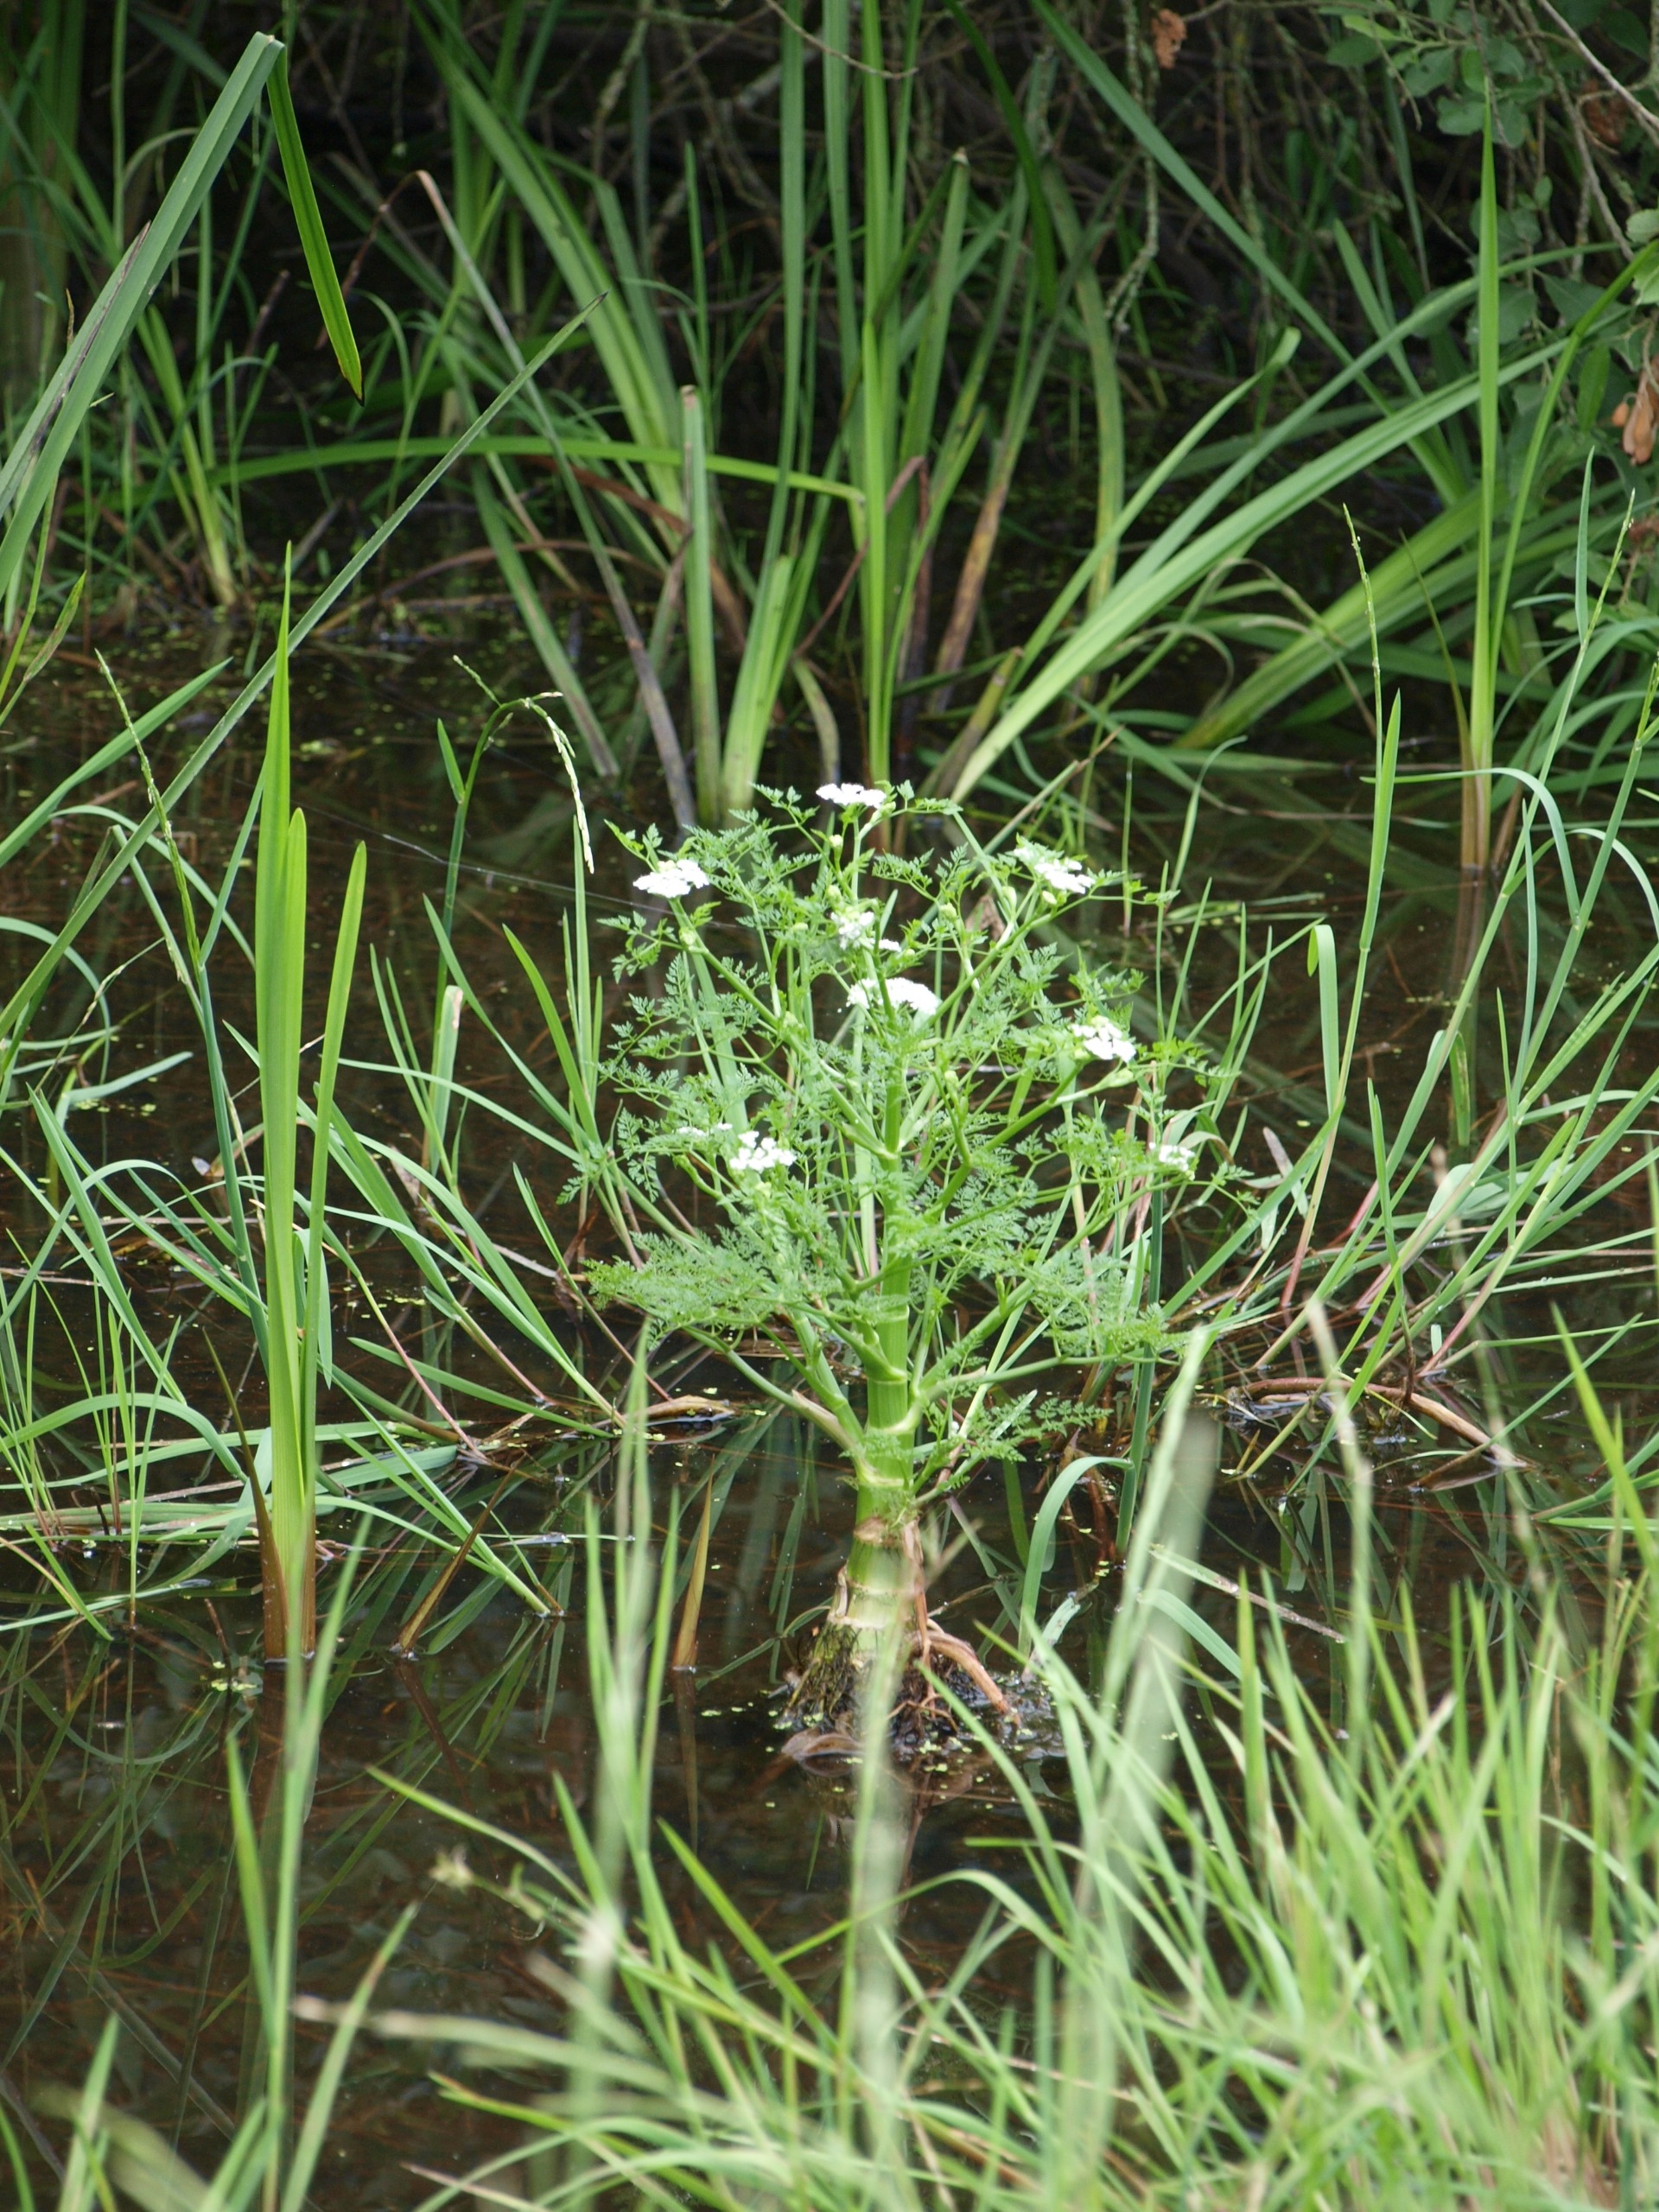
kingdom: Plantae
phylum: Tracheophyta
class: Magnoliopsida
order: Apiales
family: Apiaceae
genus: Oenanthe
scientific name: Oenanthe aquatica
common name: Billebo-klaseskærm
